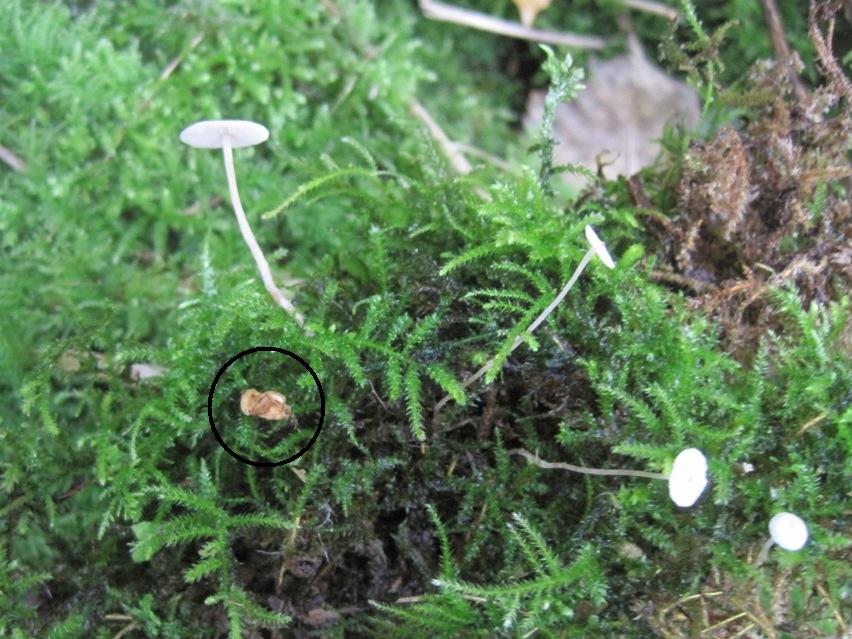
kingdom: Fungi
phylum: Basidiomycota
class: Agaricomycetes
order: Agaricales
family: Tricholomataceae
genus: Collybia
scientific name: Collybia cookei
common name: gulknoldet lighat
